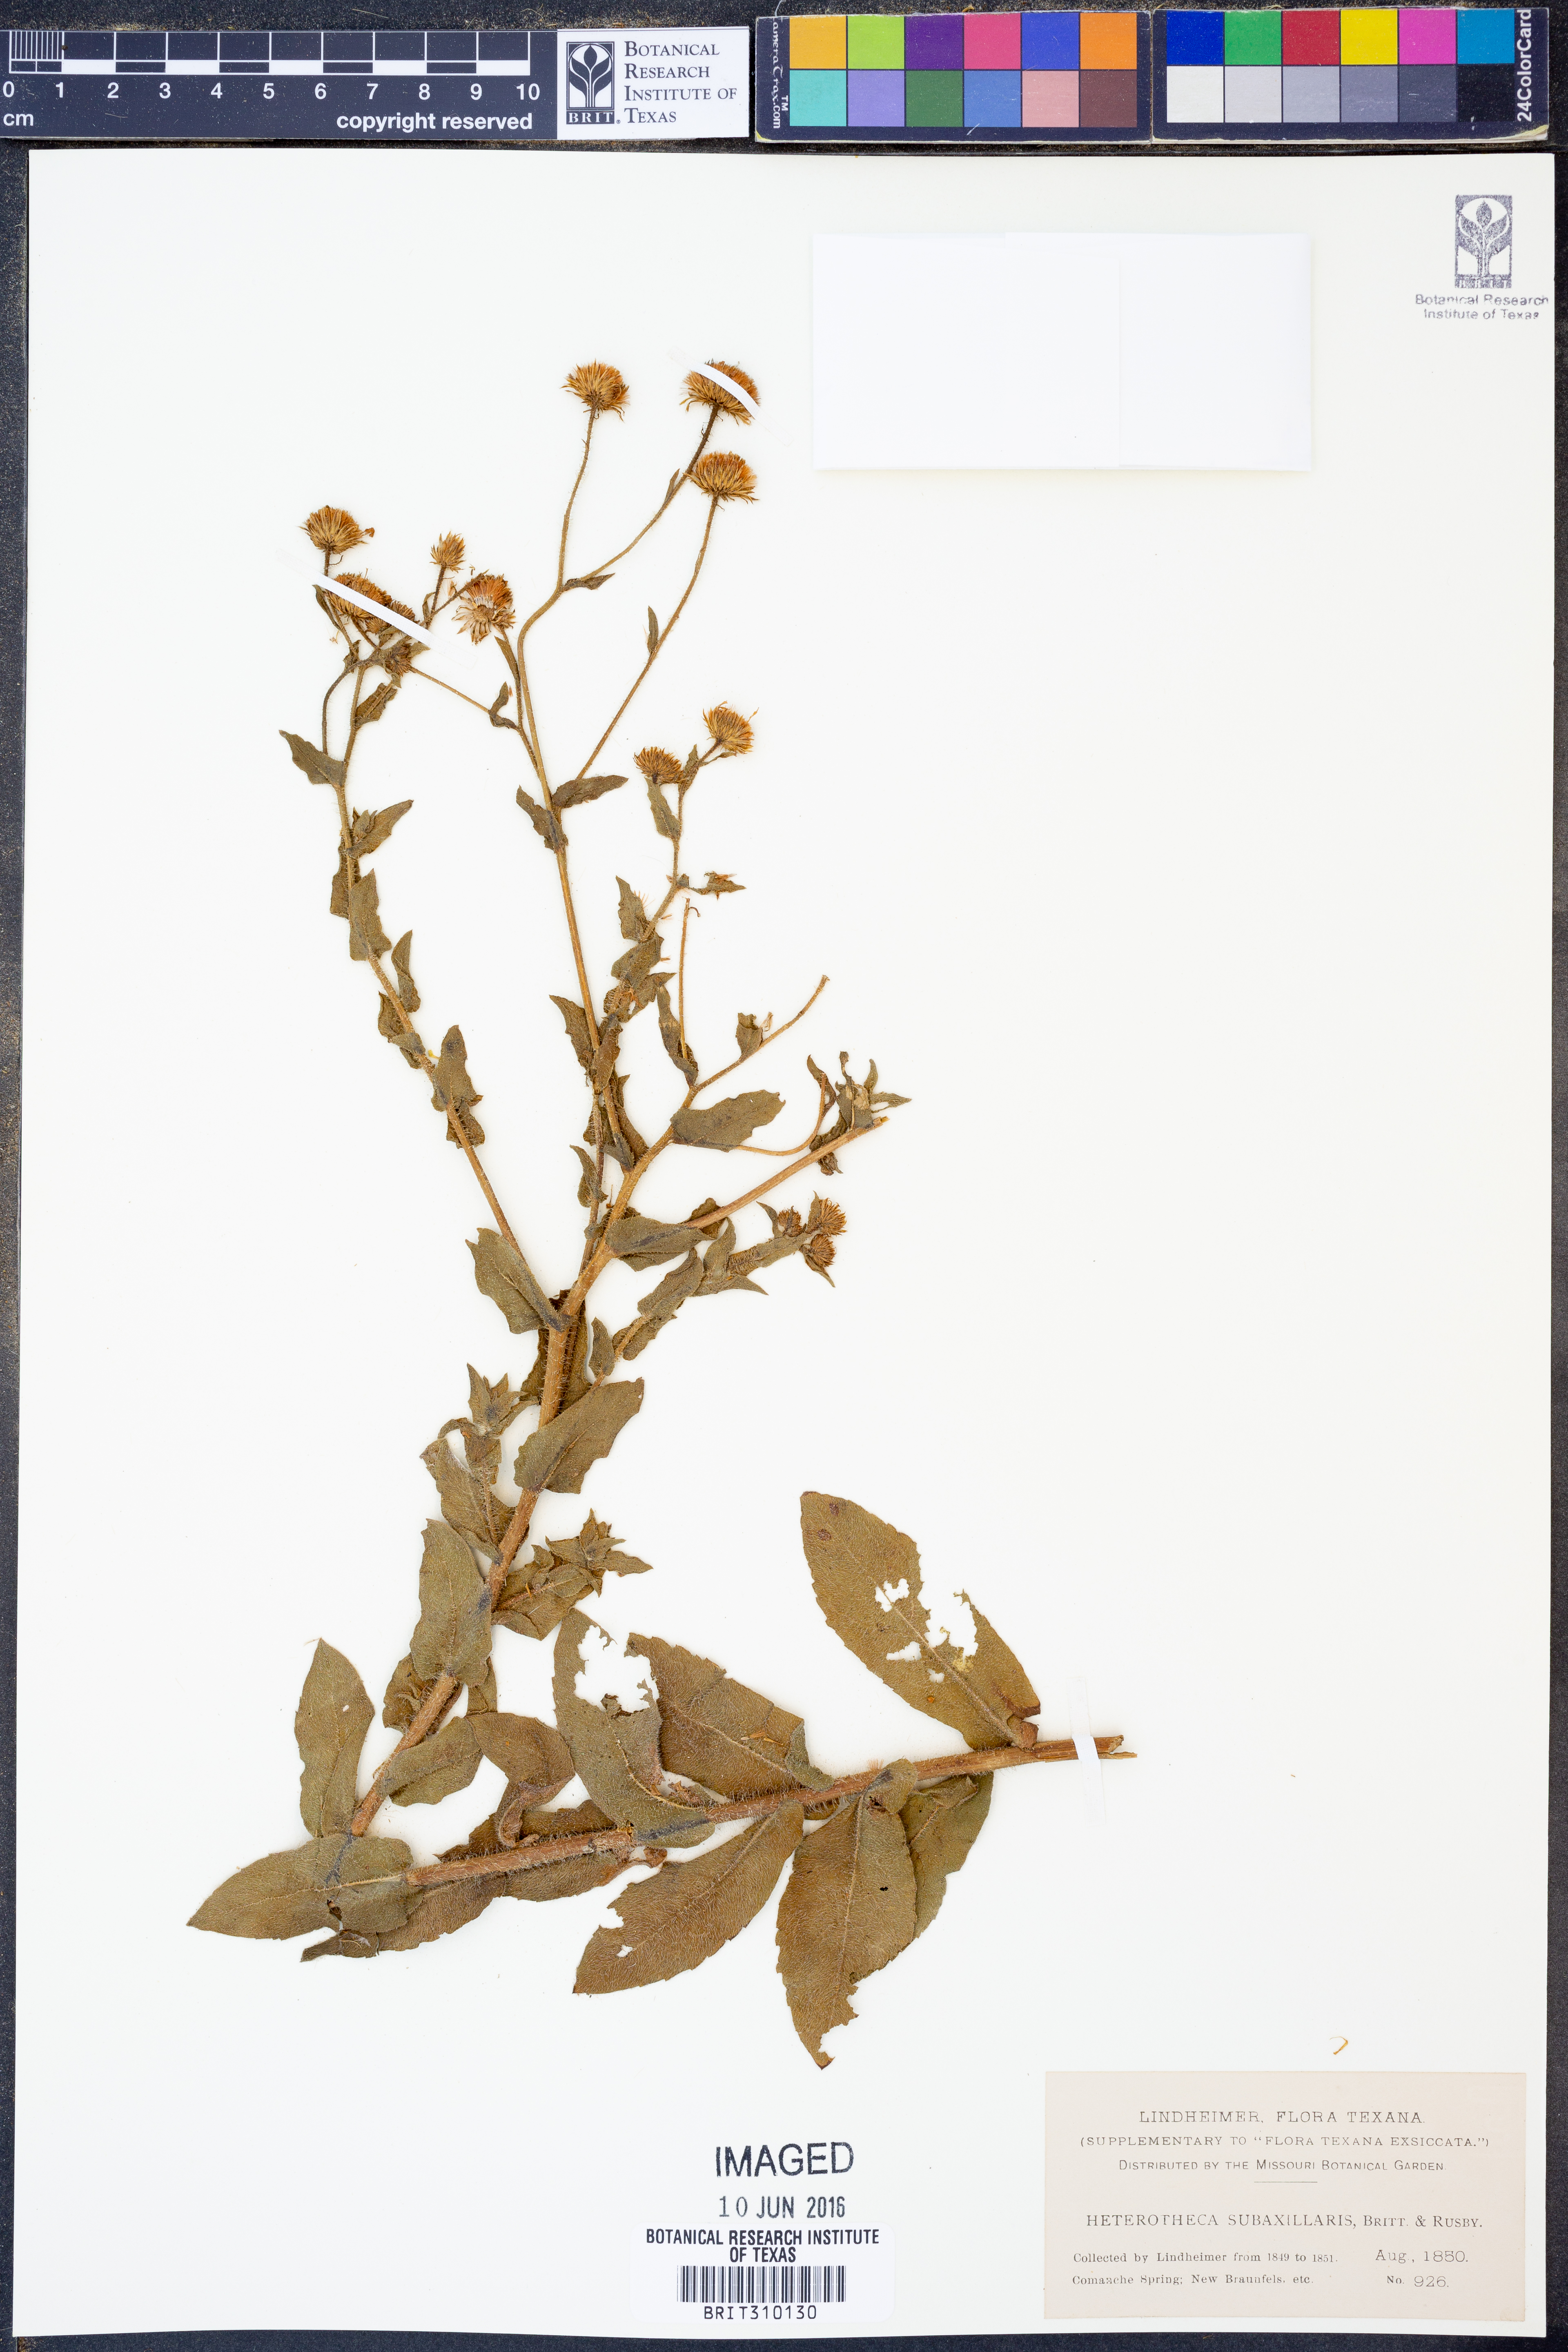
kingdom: Plantae
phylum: Tracheophyta
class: Magnoliopsida
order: Asterales
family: Asteraceae
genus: Heterotheca
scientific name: Heterotheca subaxillaris
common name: Camphorweed
